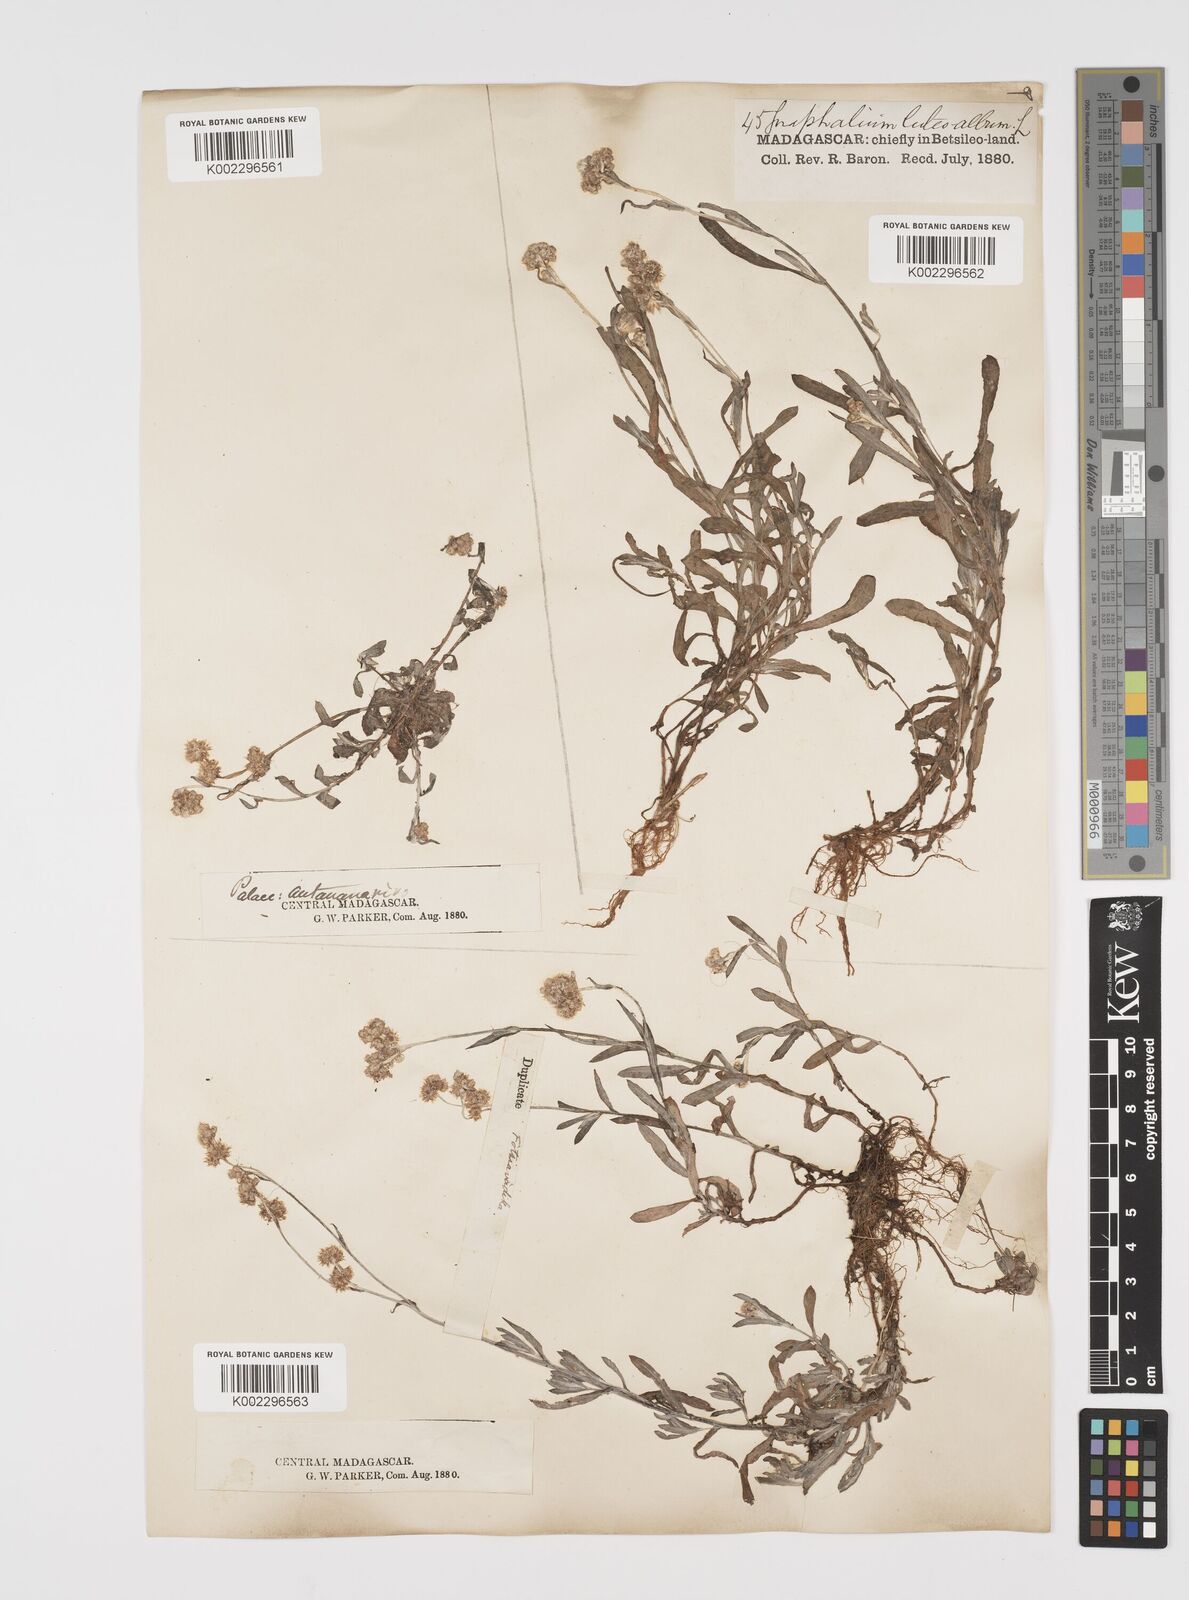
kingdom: Plantae
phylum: Tracheophyta
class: Magnoliopsida
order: Asterales
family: Asteraceae
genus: Helichrysum
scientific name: Helichrysum luteoalbum
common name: Daisy
